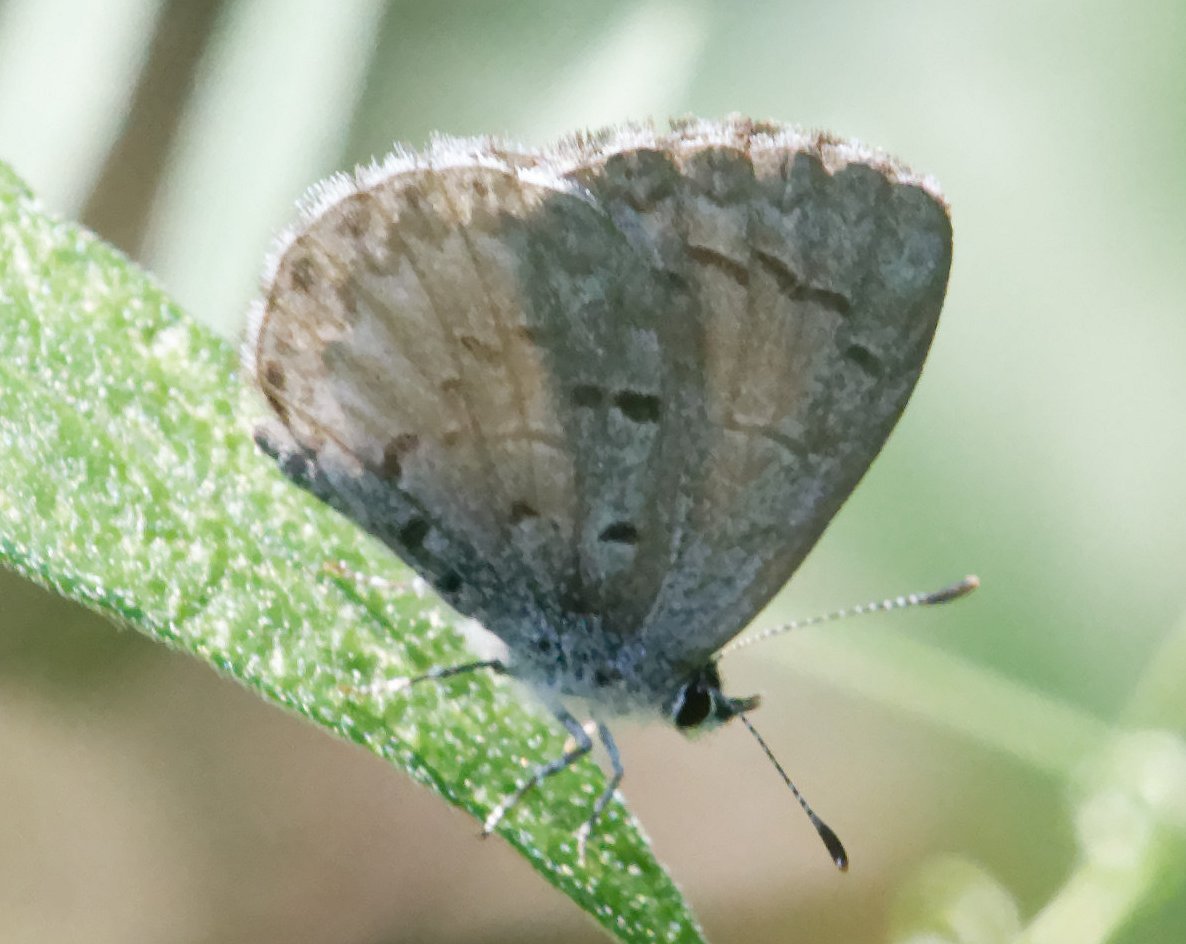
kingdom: Animalia
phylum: Arthropoda
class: Insecta
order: Lepidoptera
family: Lycaenidae
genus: Celastrina
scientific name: Celastrina
